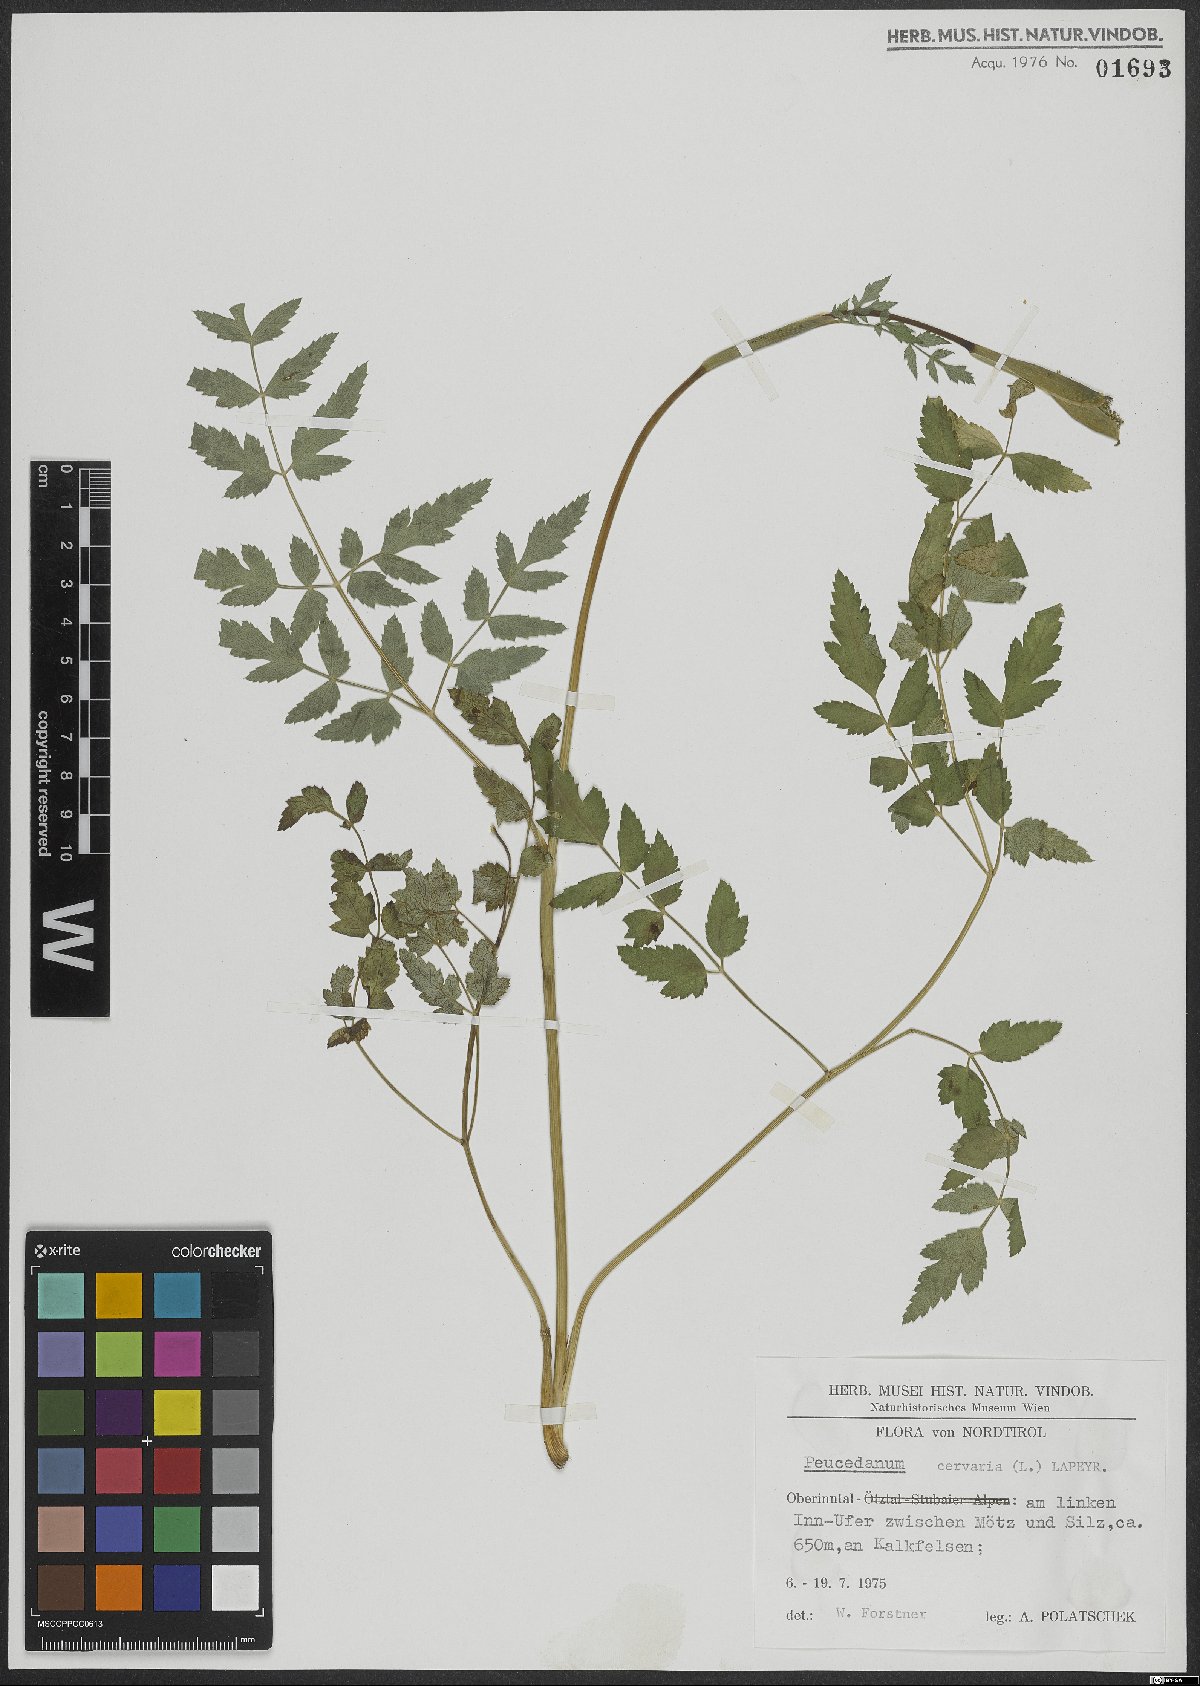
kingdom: Plantae
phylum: Tracheophyta
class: Magnoliopsida
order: Apiales
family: Apiaceae
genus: Cervaria
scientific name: Cervaria rivini
